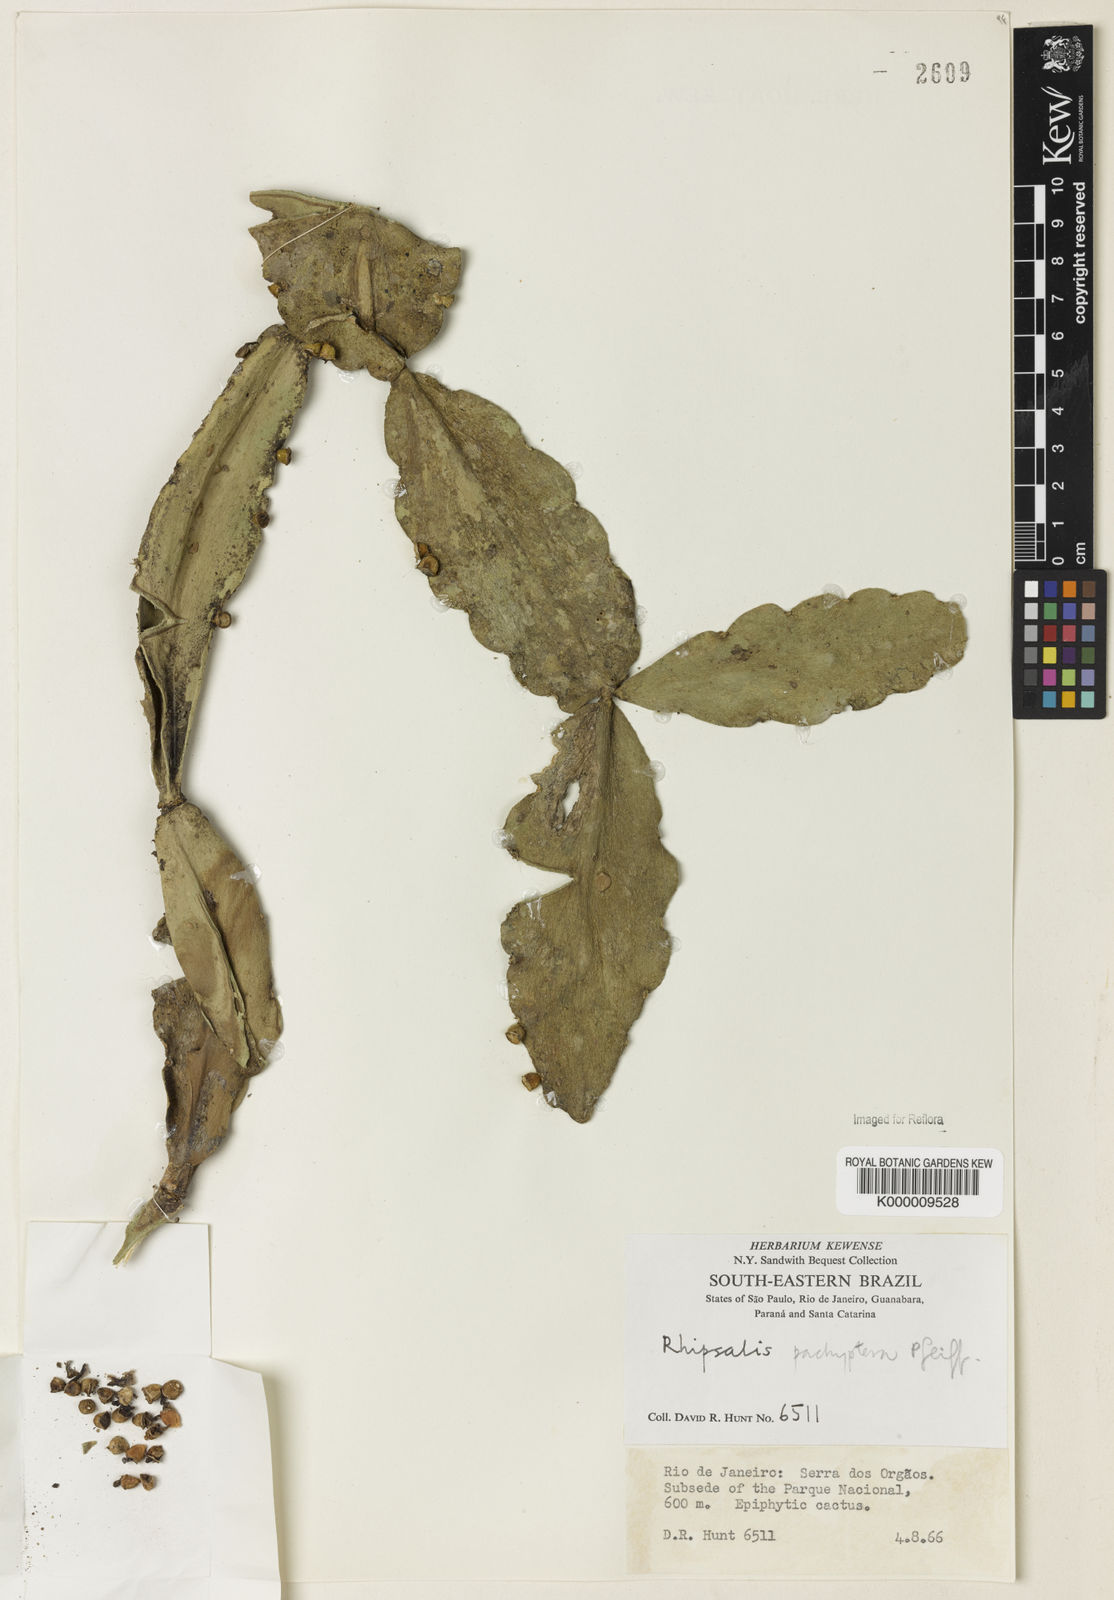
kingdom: Plantae
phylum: Tracheophyta
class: Magnoliopsida
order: Caryophyllales
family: Cactaceae
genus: Rhipsalis
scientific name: Rhipsalis pachyptera
